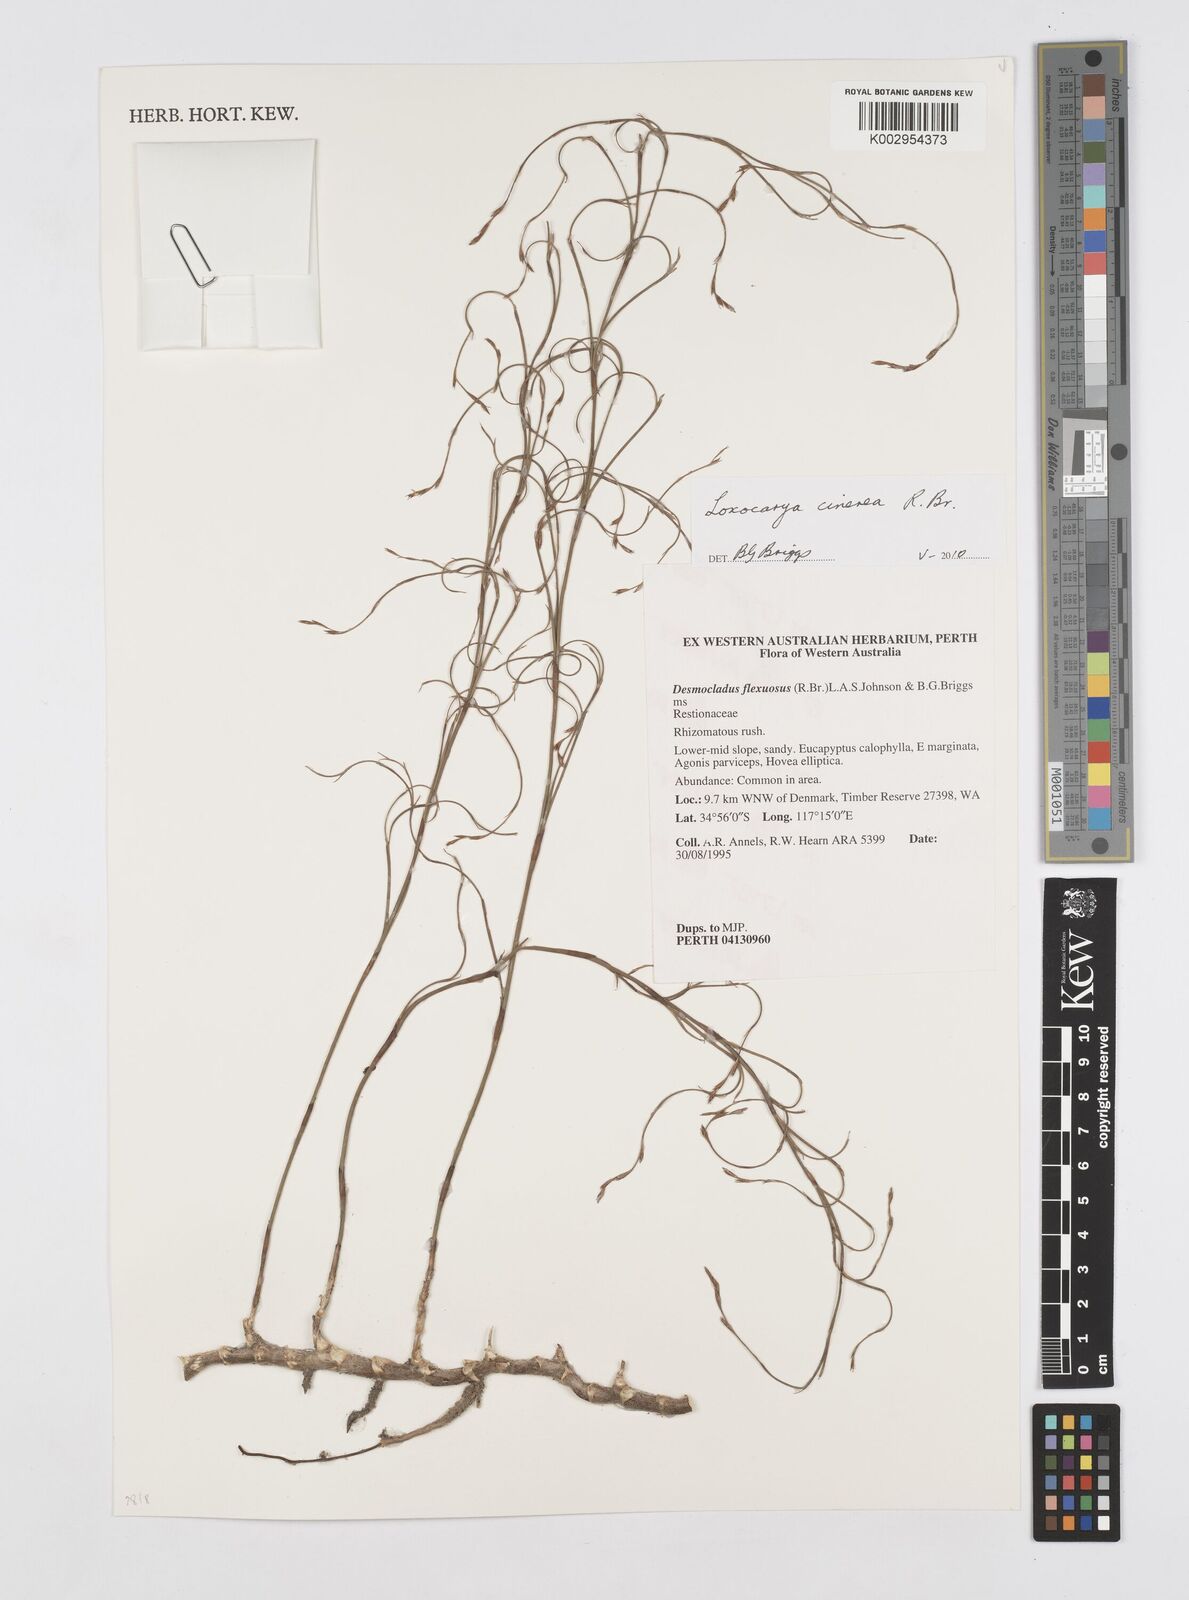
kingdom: Plantae
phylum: Tracheophyta
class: Liliopsida
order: Poales
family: Restionaceae
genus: Loxocarya
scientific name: Loxocarya cinerea
